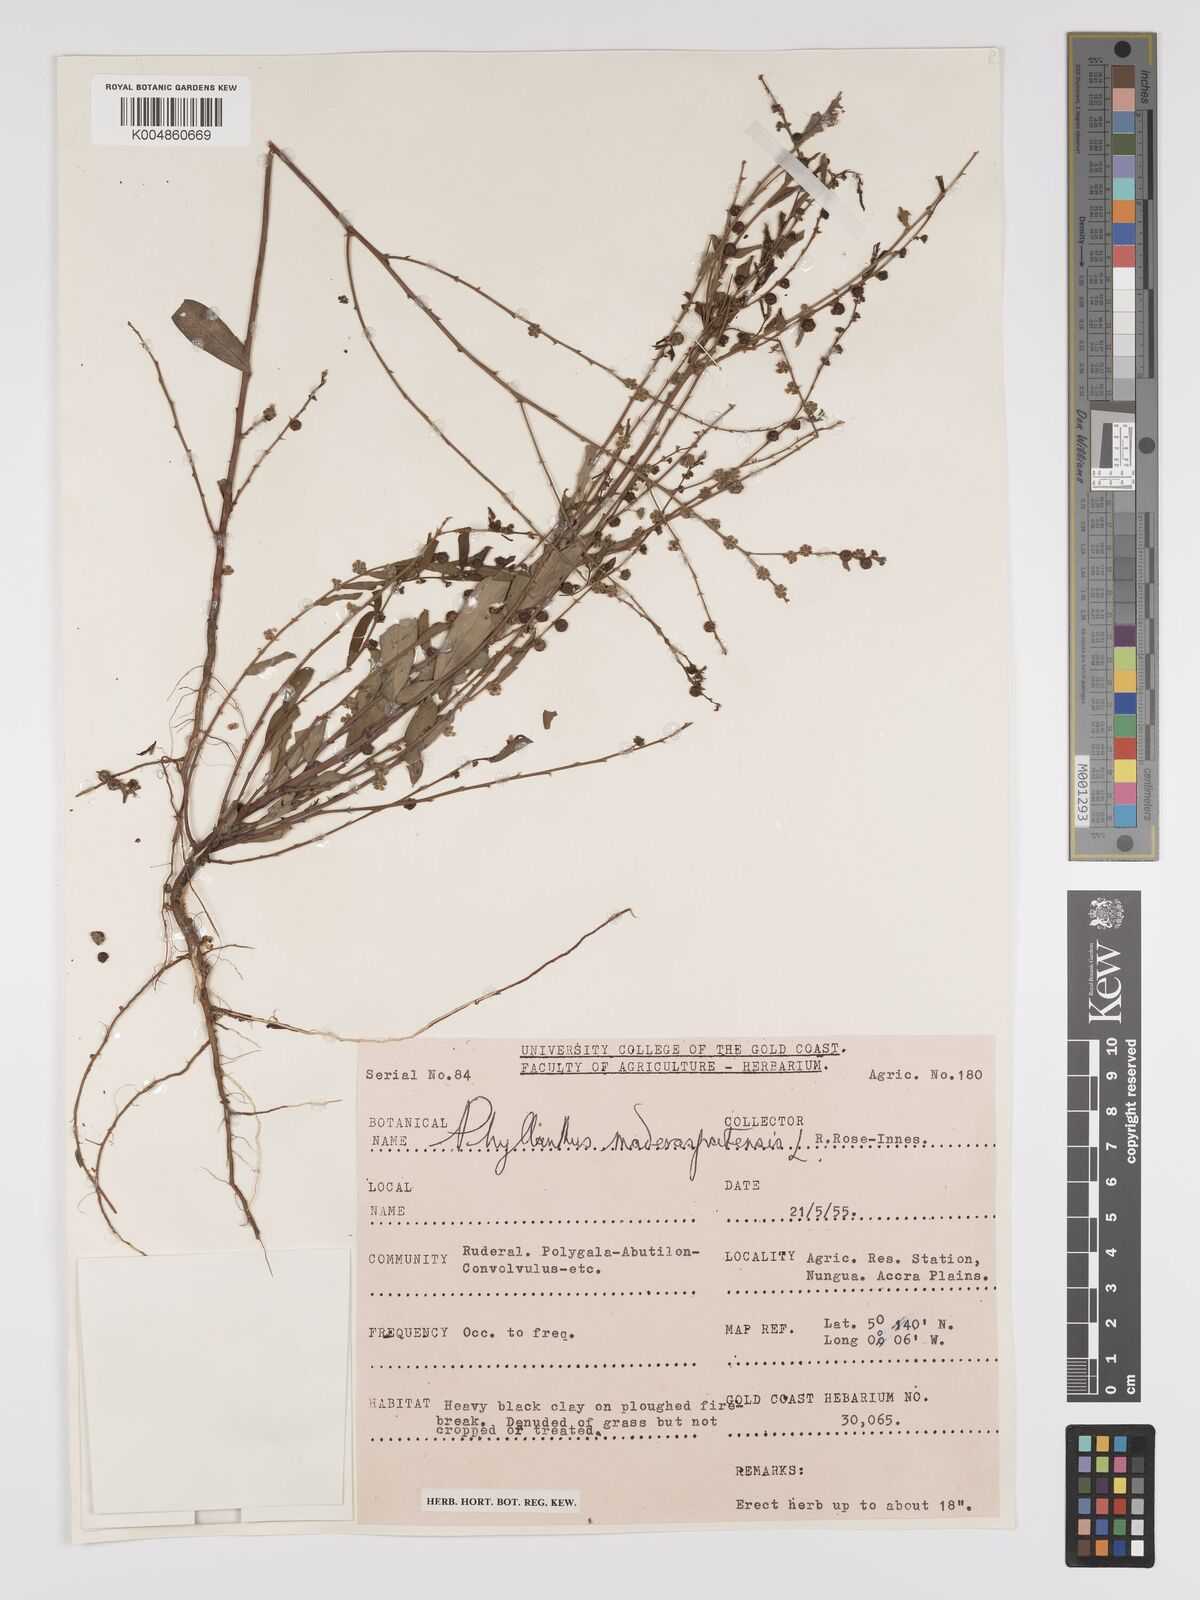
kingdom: Plantae
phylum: Tracheophyta
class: Magnoliopsida
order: Malpighiales
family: Phyllanthaceae
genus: Phyllanthus
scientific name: Phyllanthus
